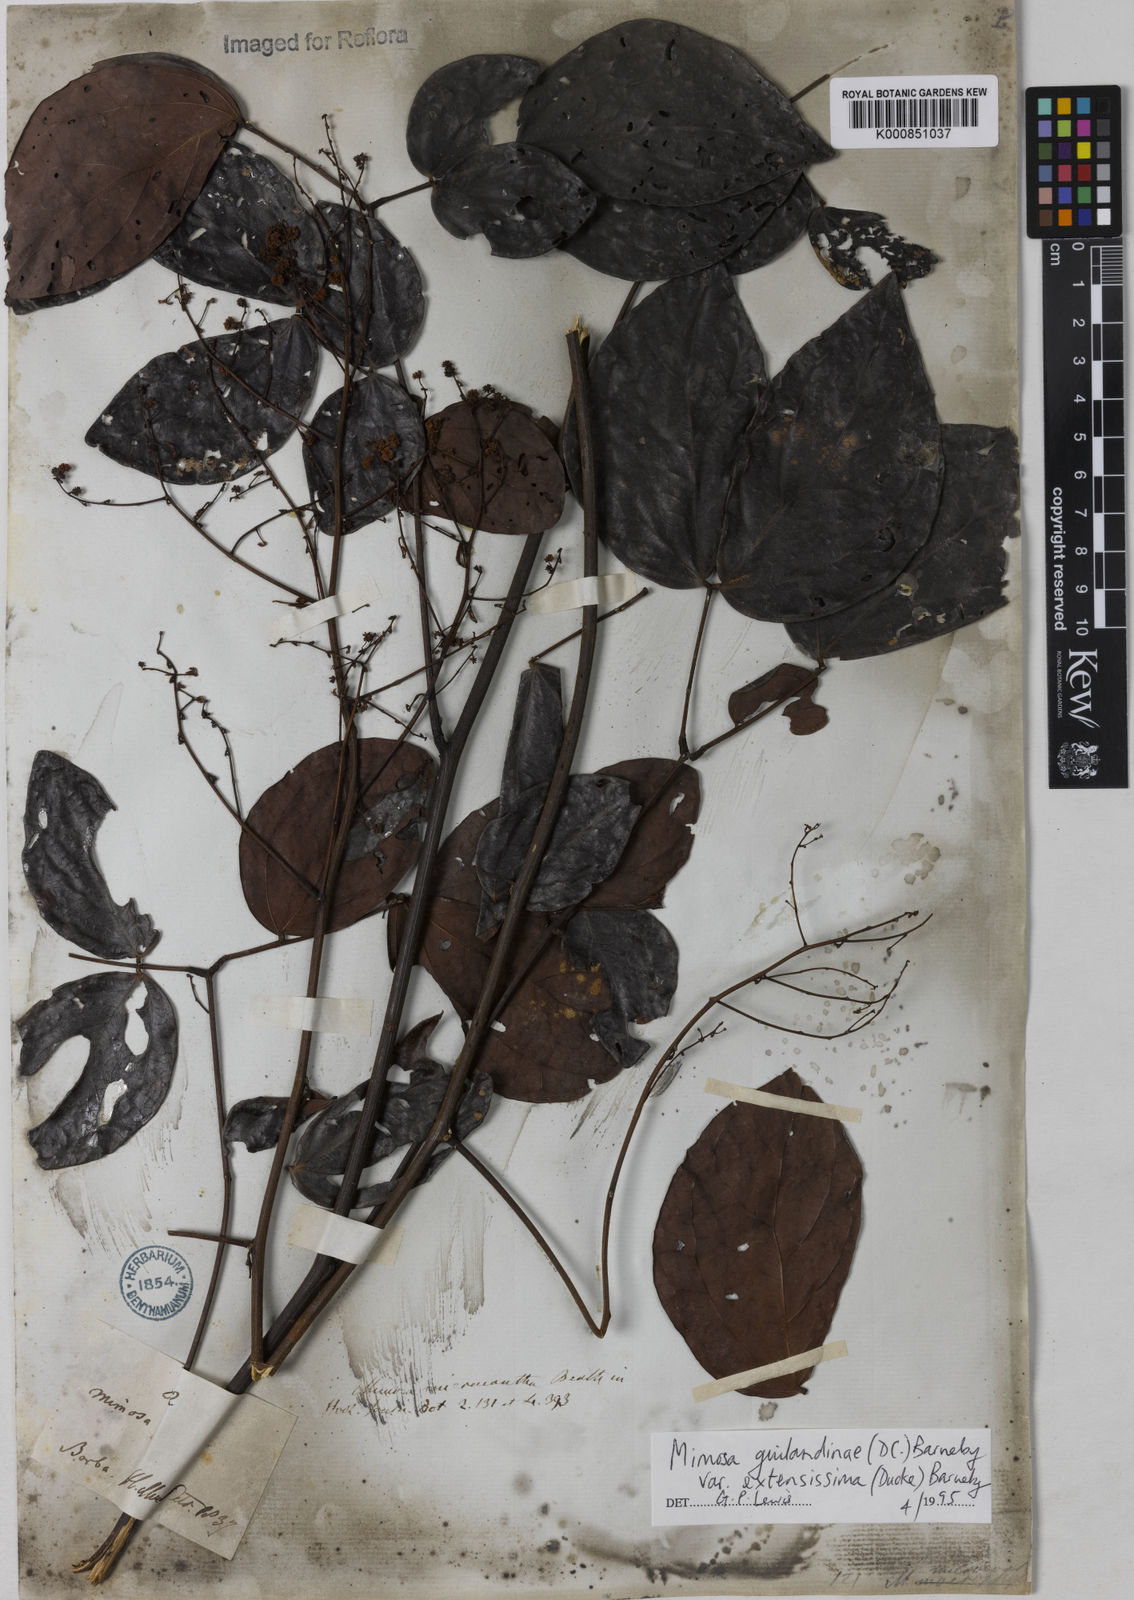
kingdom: Plantae
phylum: Tracheophyta
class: Magnoliopsida
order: Fabales
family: Fabaceae
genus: Mimosa
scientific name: Mimosa guilandinae
